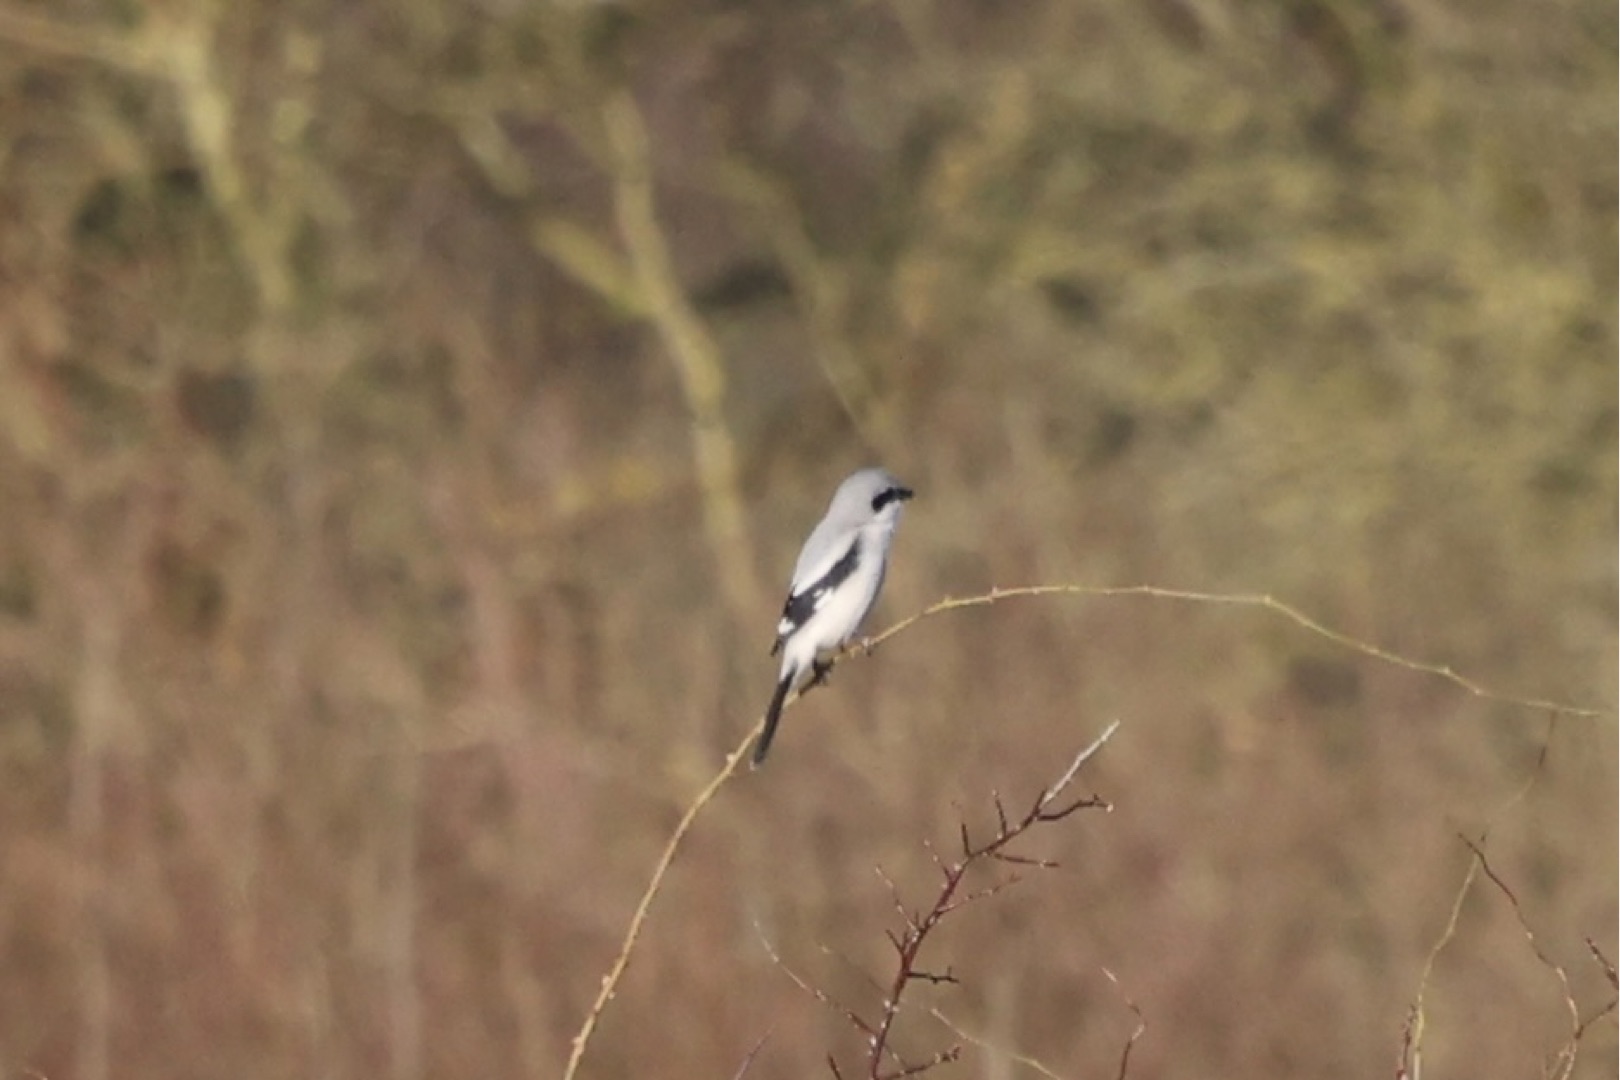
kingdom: Animalia
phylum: Chordata
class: Aves
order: Passeriformes
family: Laniidae
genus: Lanius
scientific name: Lanius excubitor
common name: Stor tornskade
